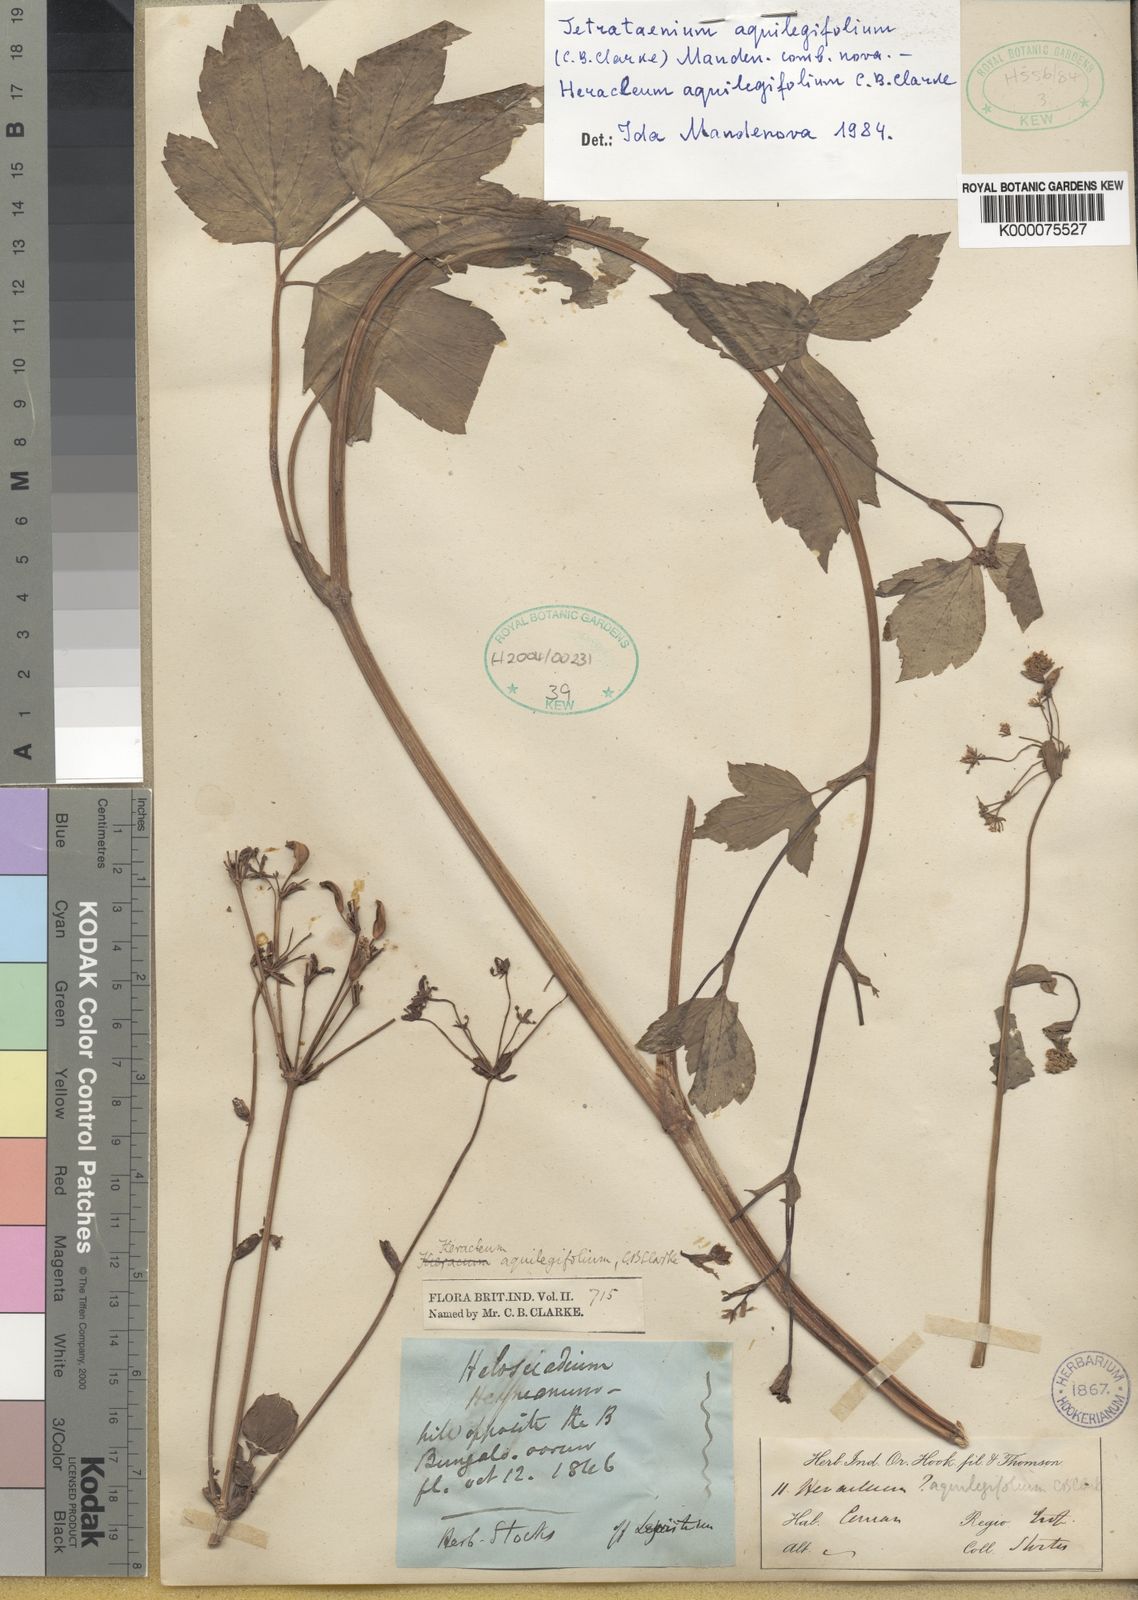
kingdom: Plantae
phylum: Tracheophyta
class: Magnoliopsida
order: Apiales
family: Apiaceae
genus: Tetrataenium
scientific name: Tetrataenium aquilegifolium
